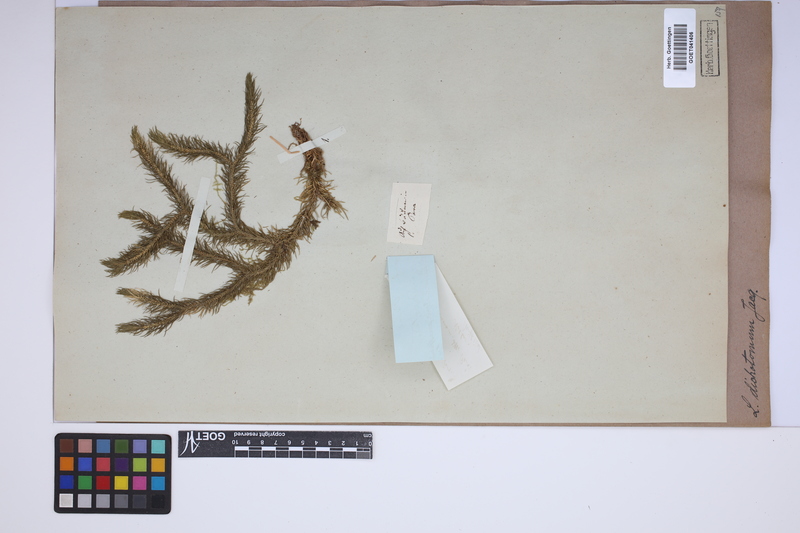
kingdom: Plantae
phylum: Tracheophyta
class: Lycopodiopsida
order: Lycopodiales
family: Lycopodiaceae
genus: Phlegmariurus
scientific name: Phlegmariurus dichotomus
